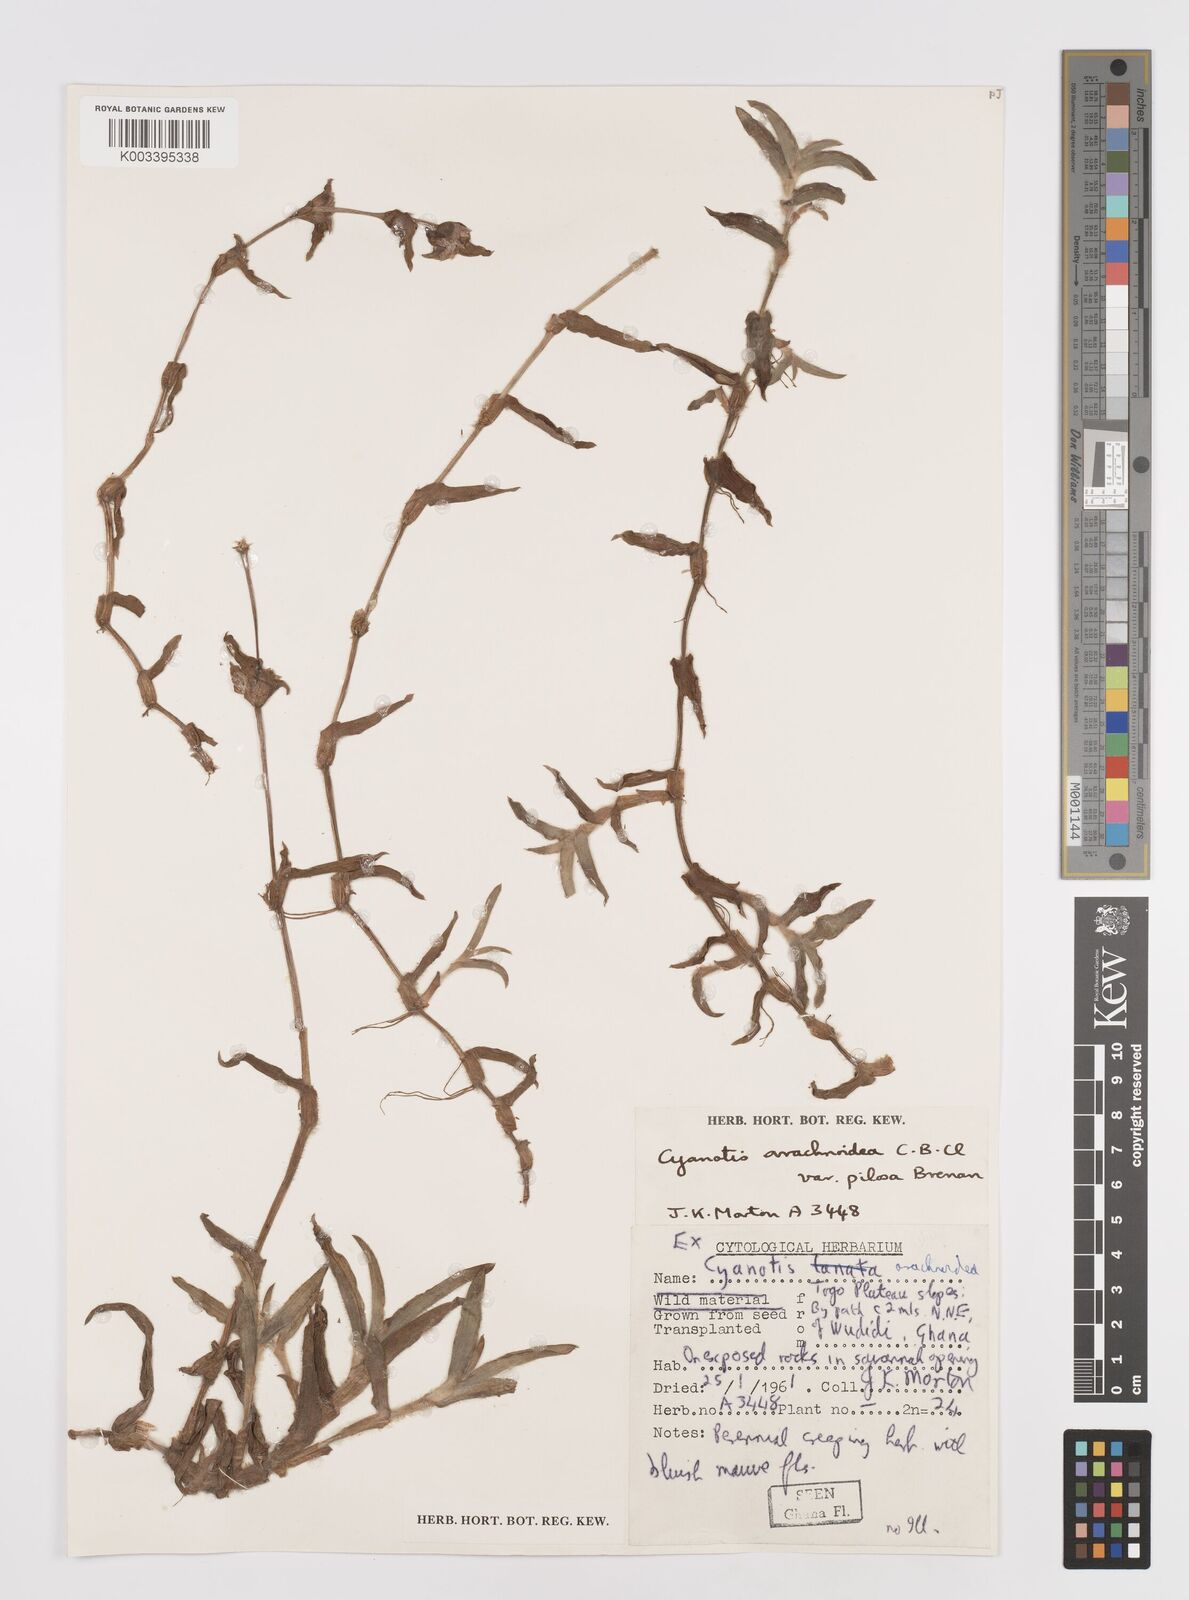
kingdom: Plantae
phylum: Tracheophyta
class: Liliopsida
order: Commelinales
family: Commelinaceae
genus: Cyanotis
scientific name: Cyanotis arachnoidea
